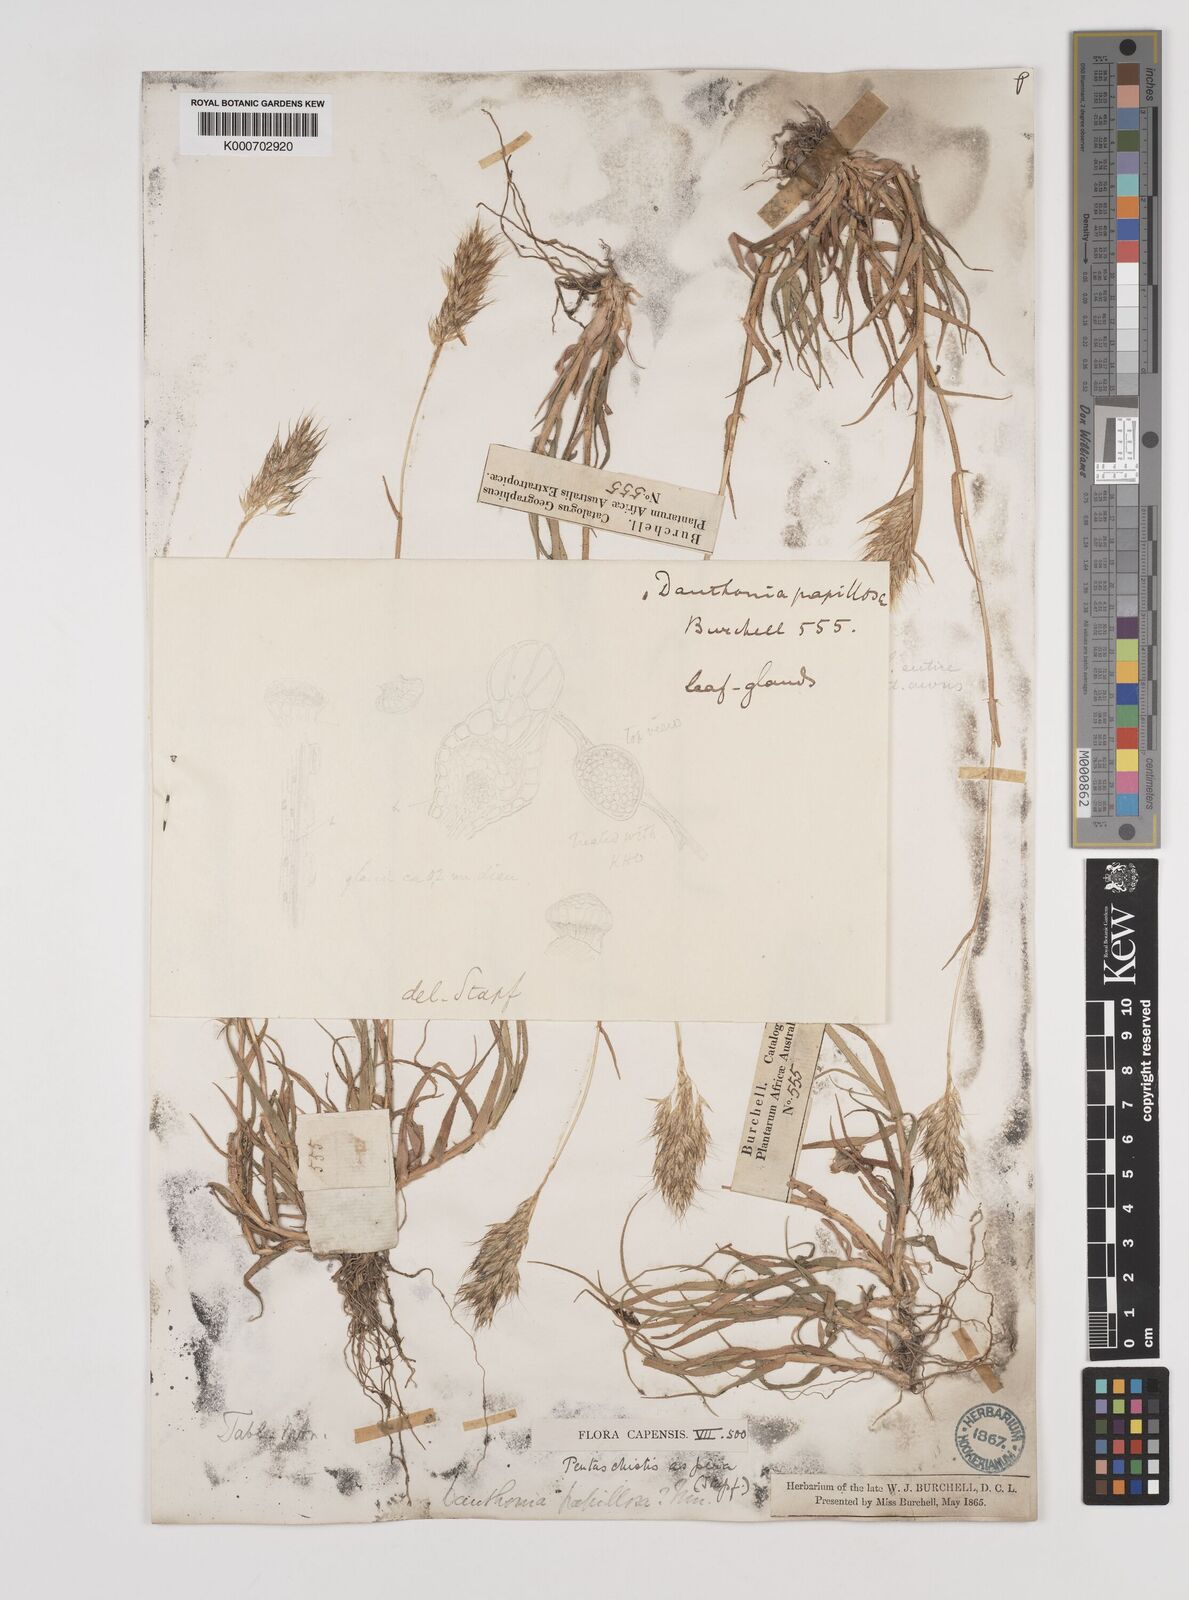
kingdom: Plantae
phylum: Tracheophyta
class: Liliopsida
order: Poales
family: Poaceae
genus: Pentameris
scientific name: Pentameris aspera
